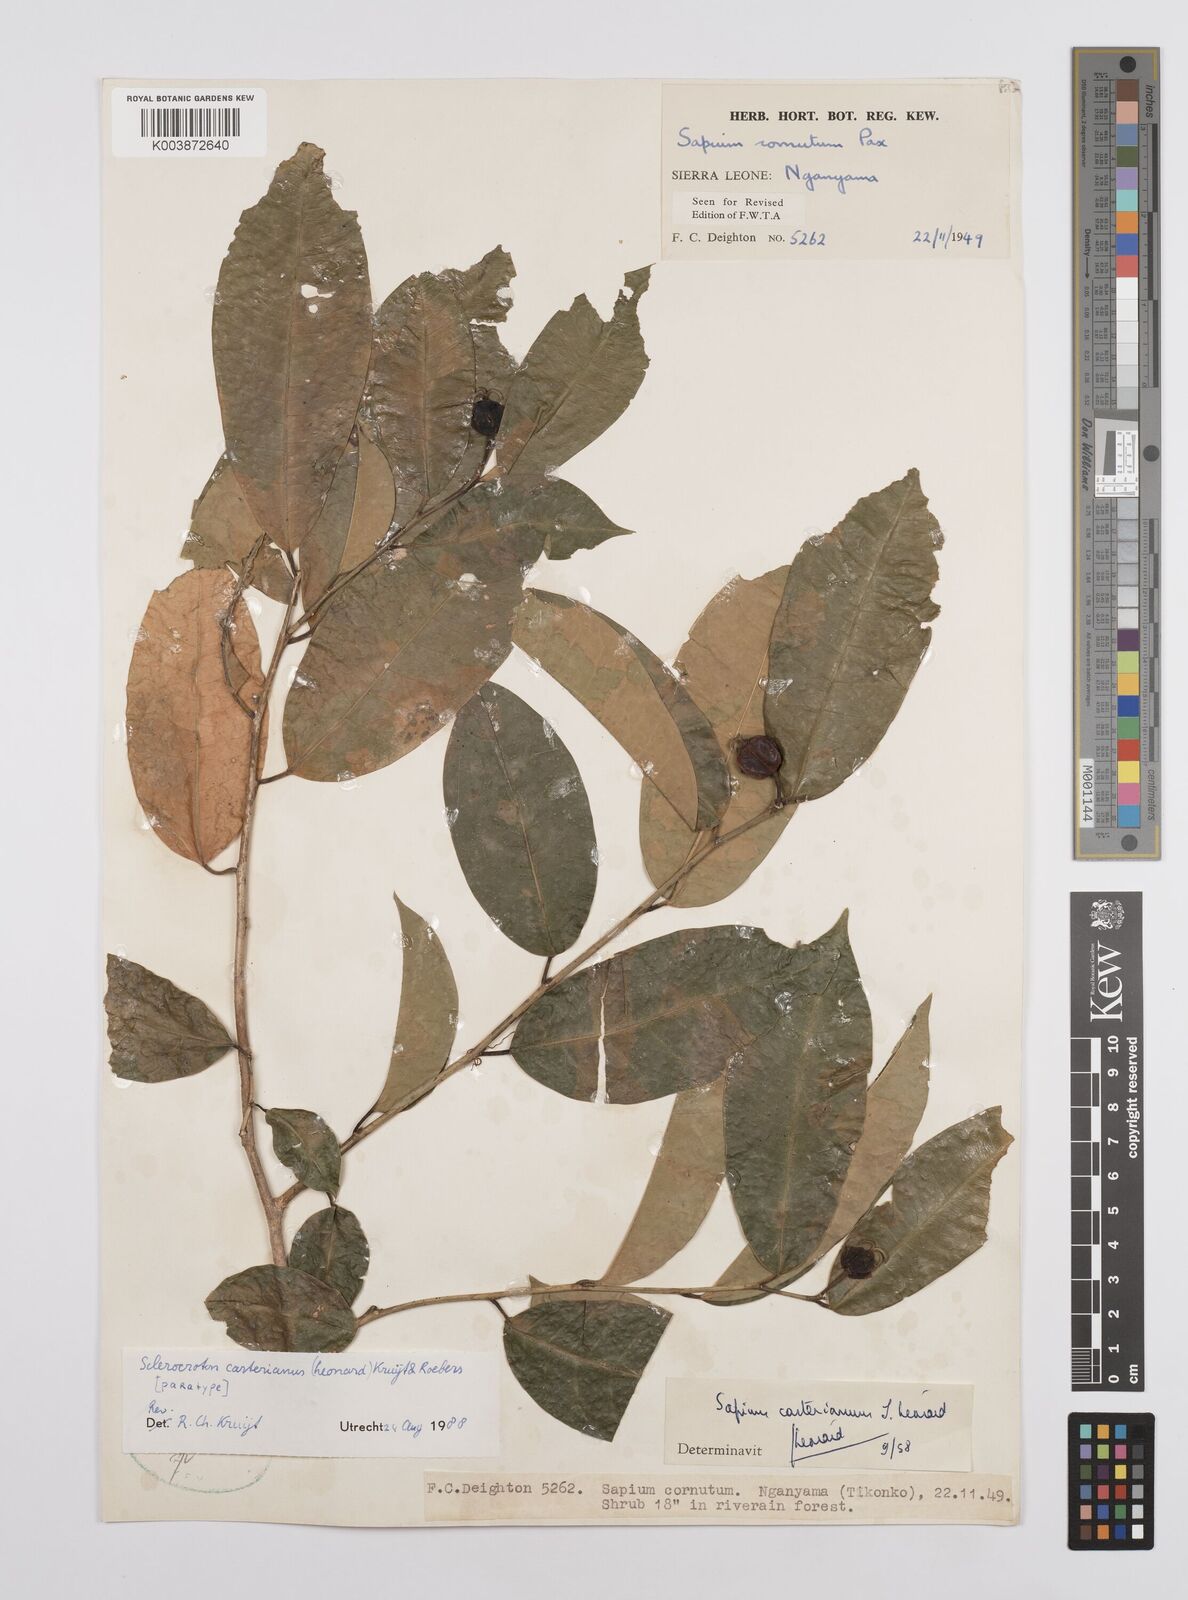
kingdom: Plantae
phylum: Tracheophyta
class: Magnoliopsida
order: Malpighiales
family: Euphorbiaceae
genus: Sclerocroton
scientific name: Sclerocroton carterianus
